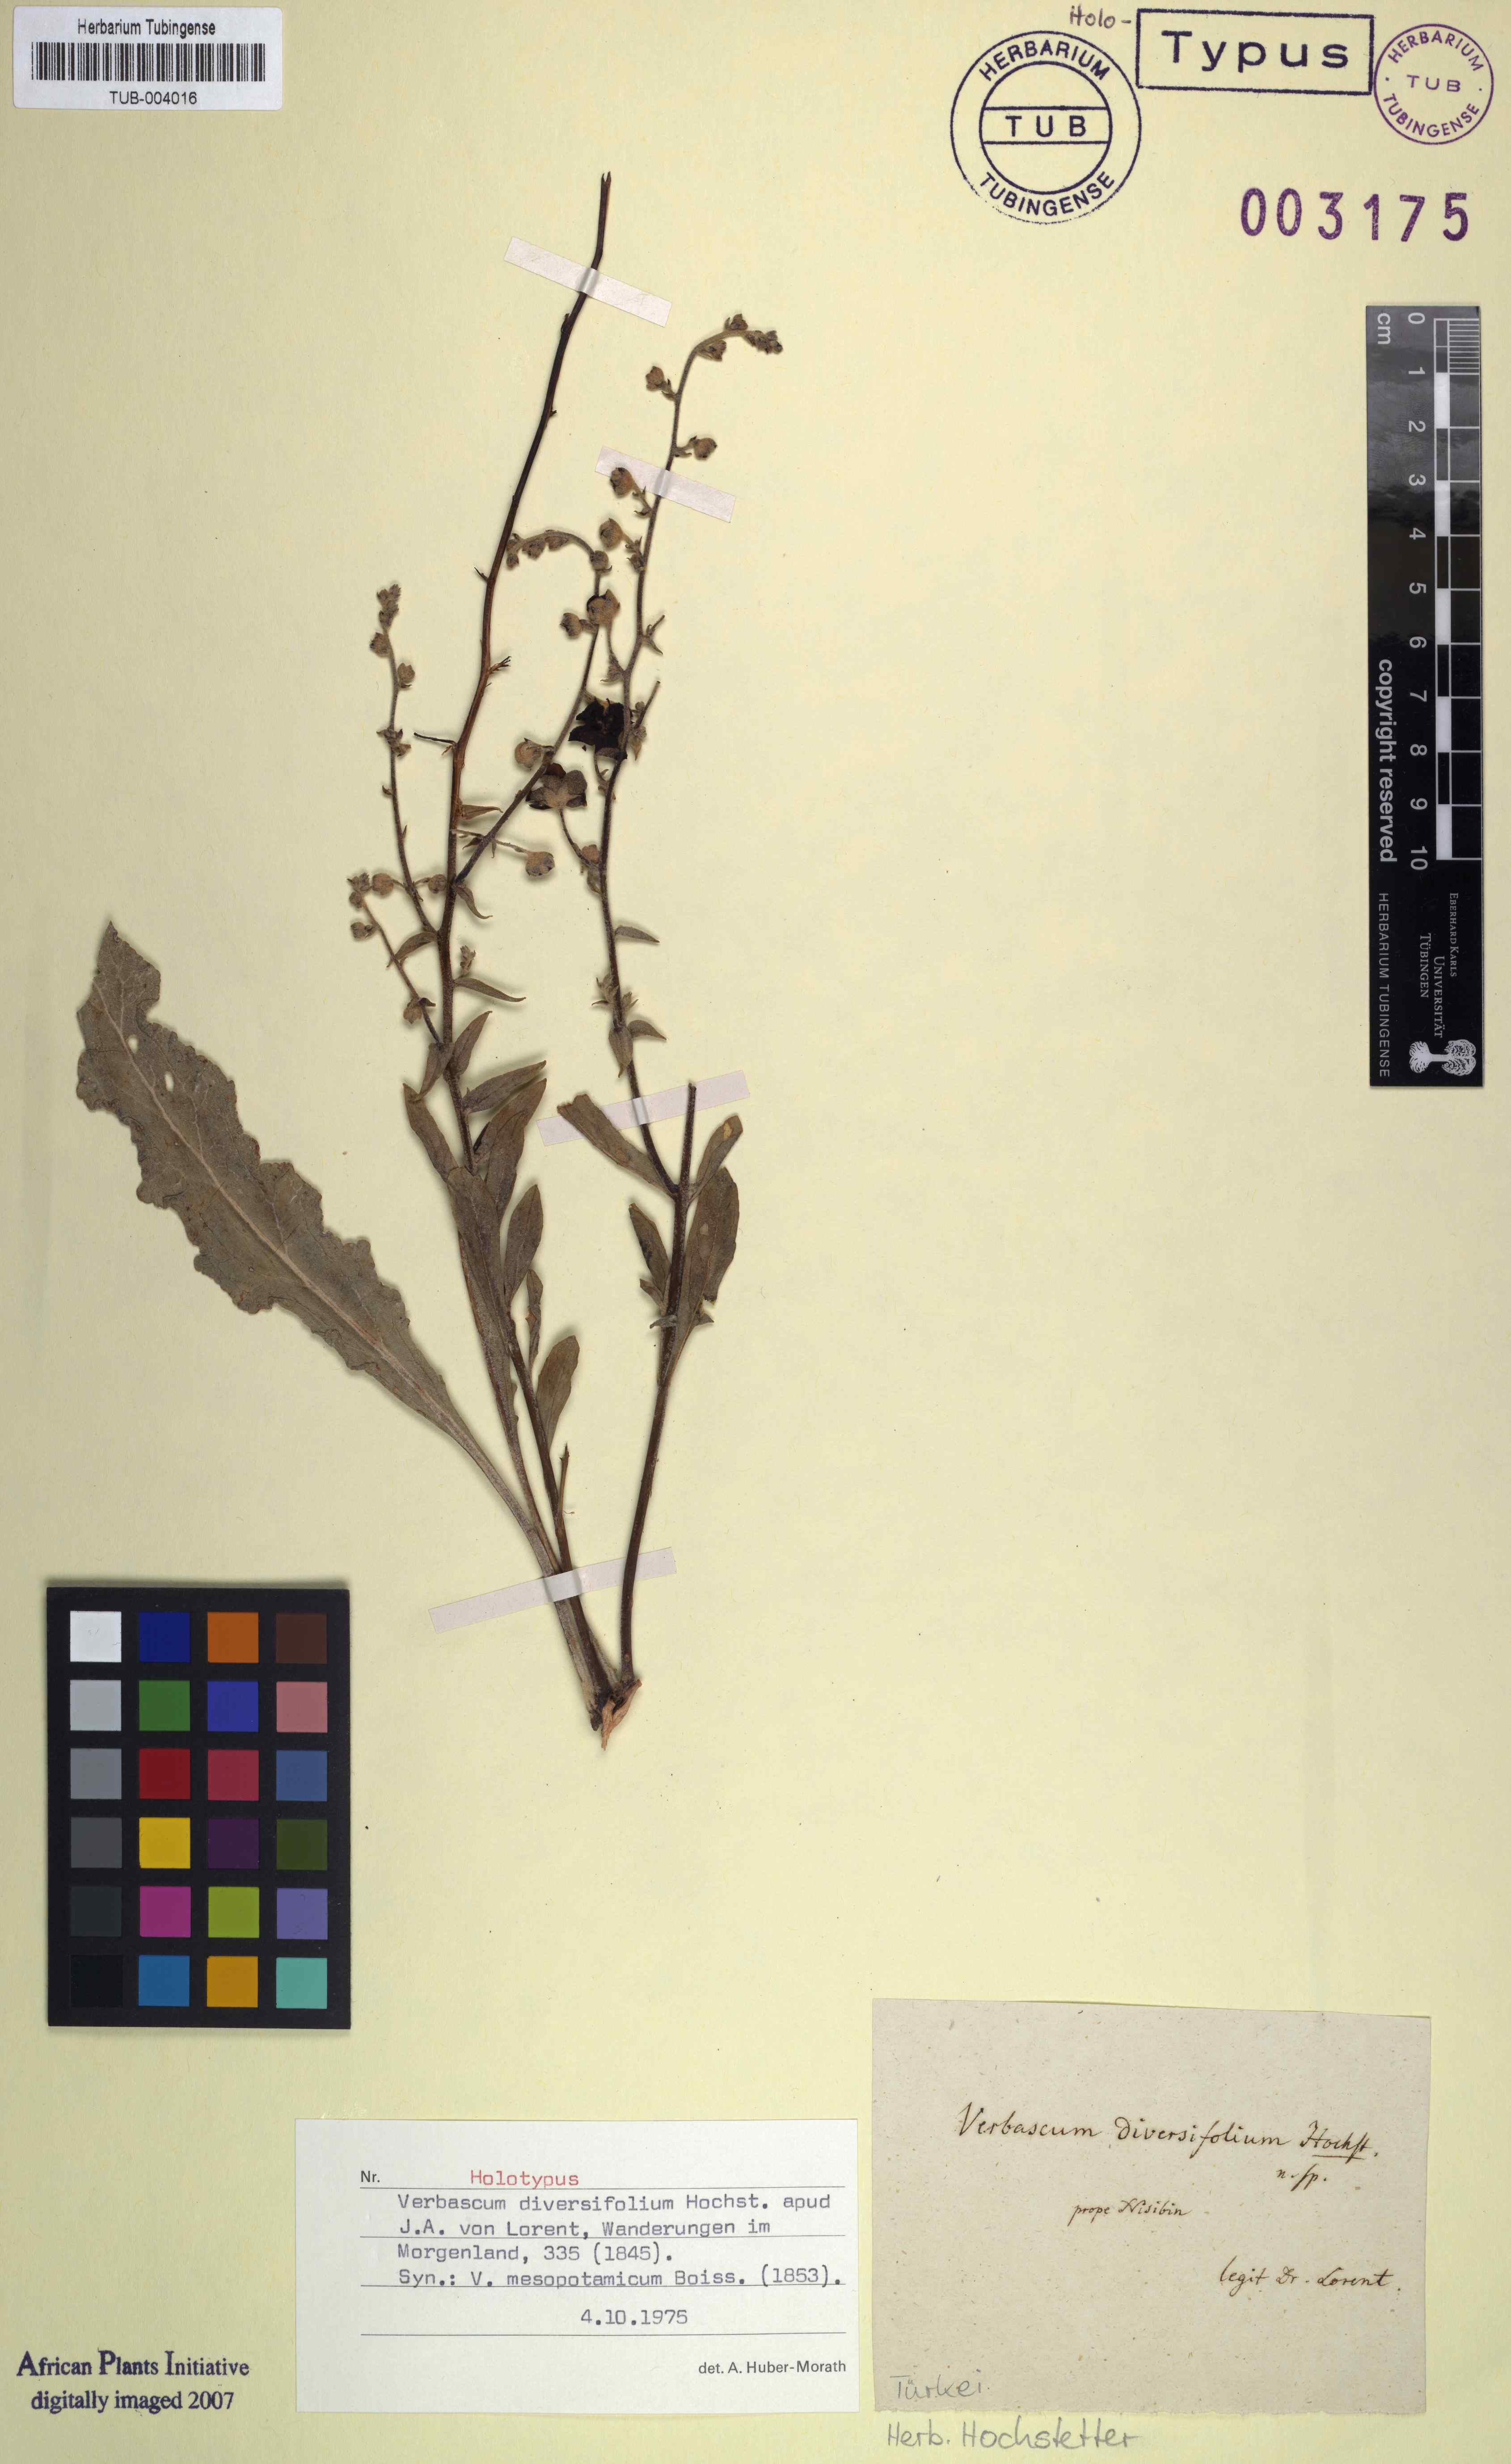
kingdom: Plantae
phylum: Tracheophyta
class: Magnoliopsida
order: Lamiales
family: Scrophulariaceae
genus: Verbascum
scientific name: Verbascum diversifolium
